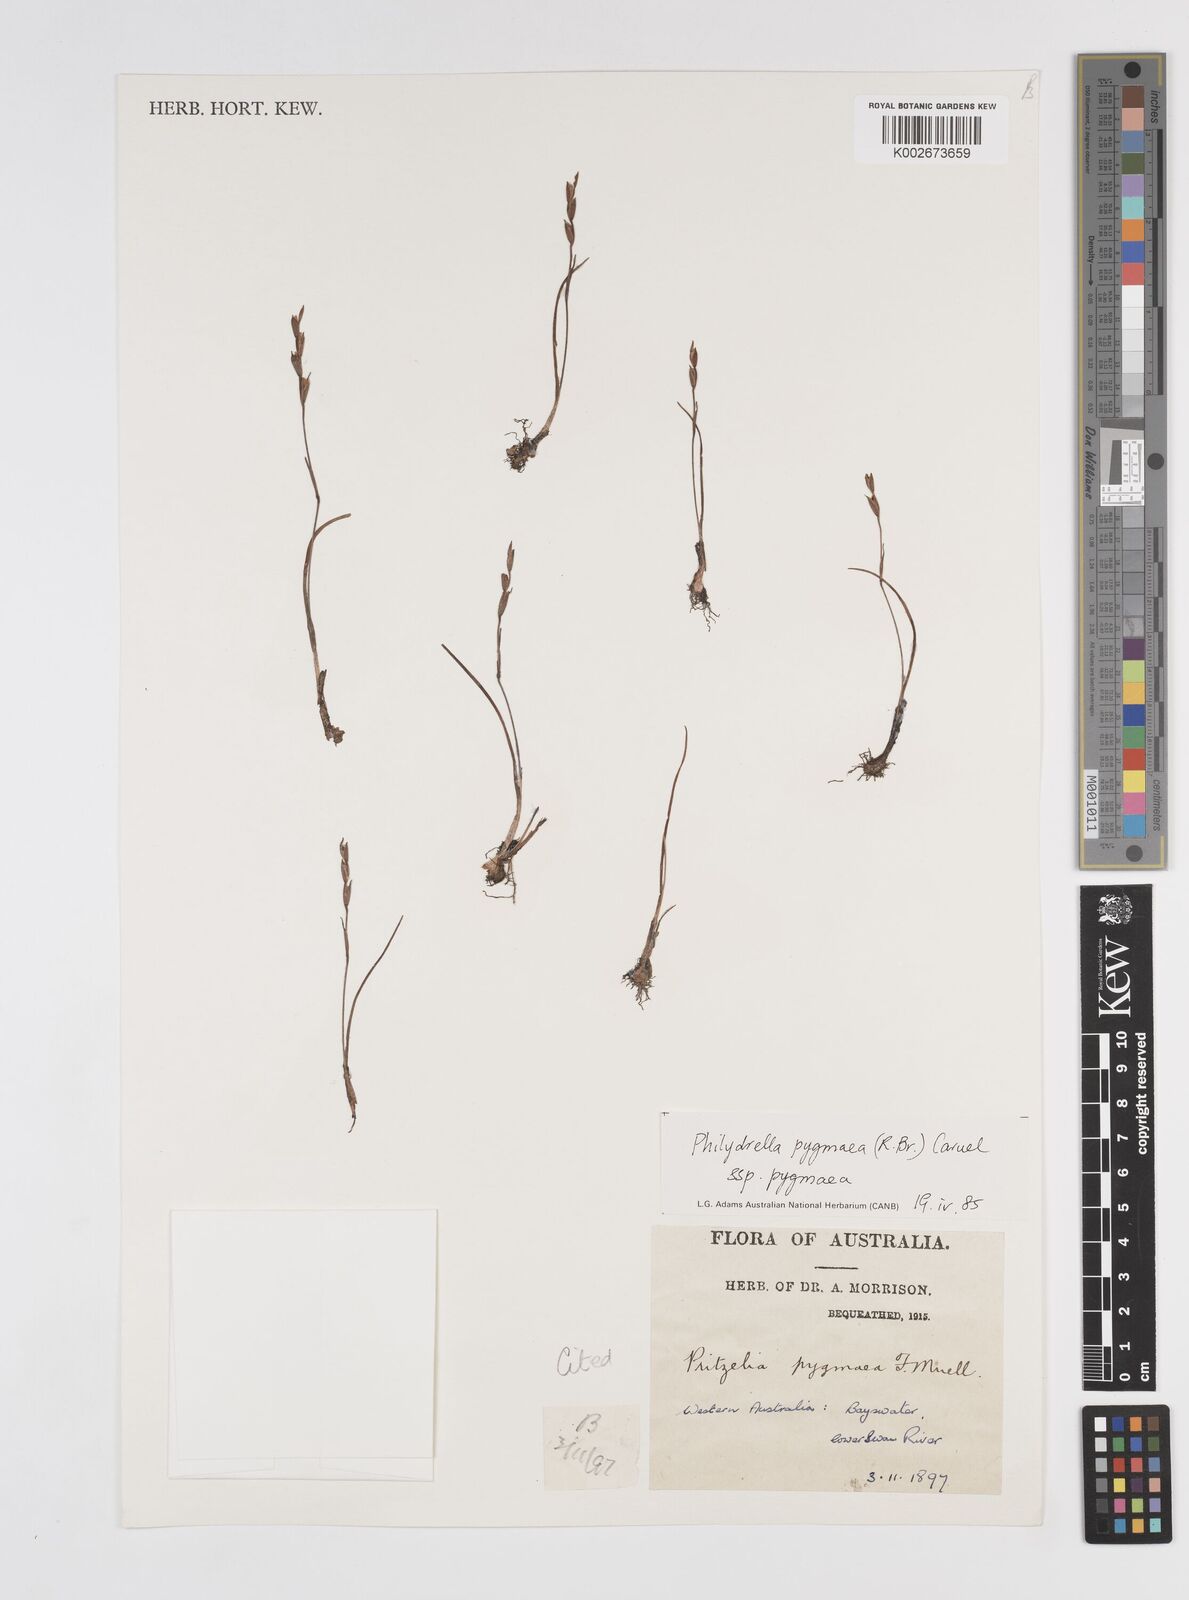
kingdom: Plantae
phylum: Tracheophyta
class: Liliopsida
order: Commelinales
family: Philydraceae
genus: Philydrella
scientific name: Philydrella pygmaea
